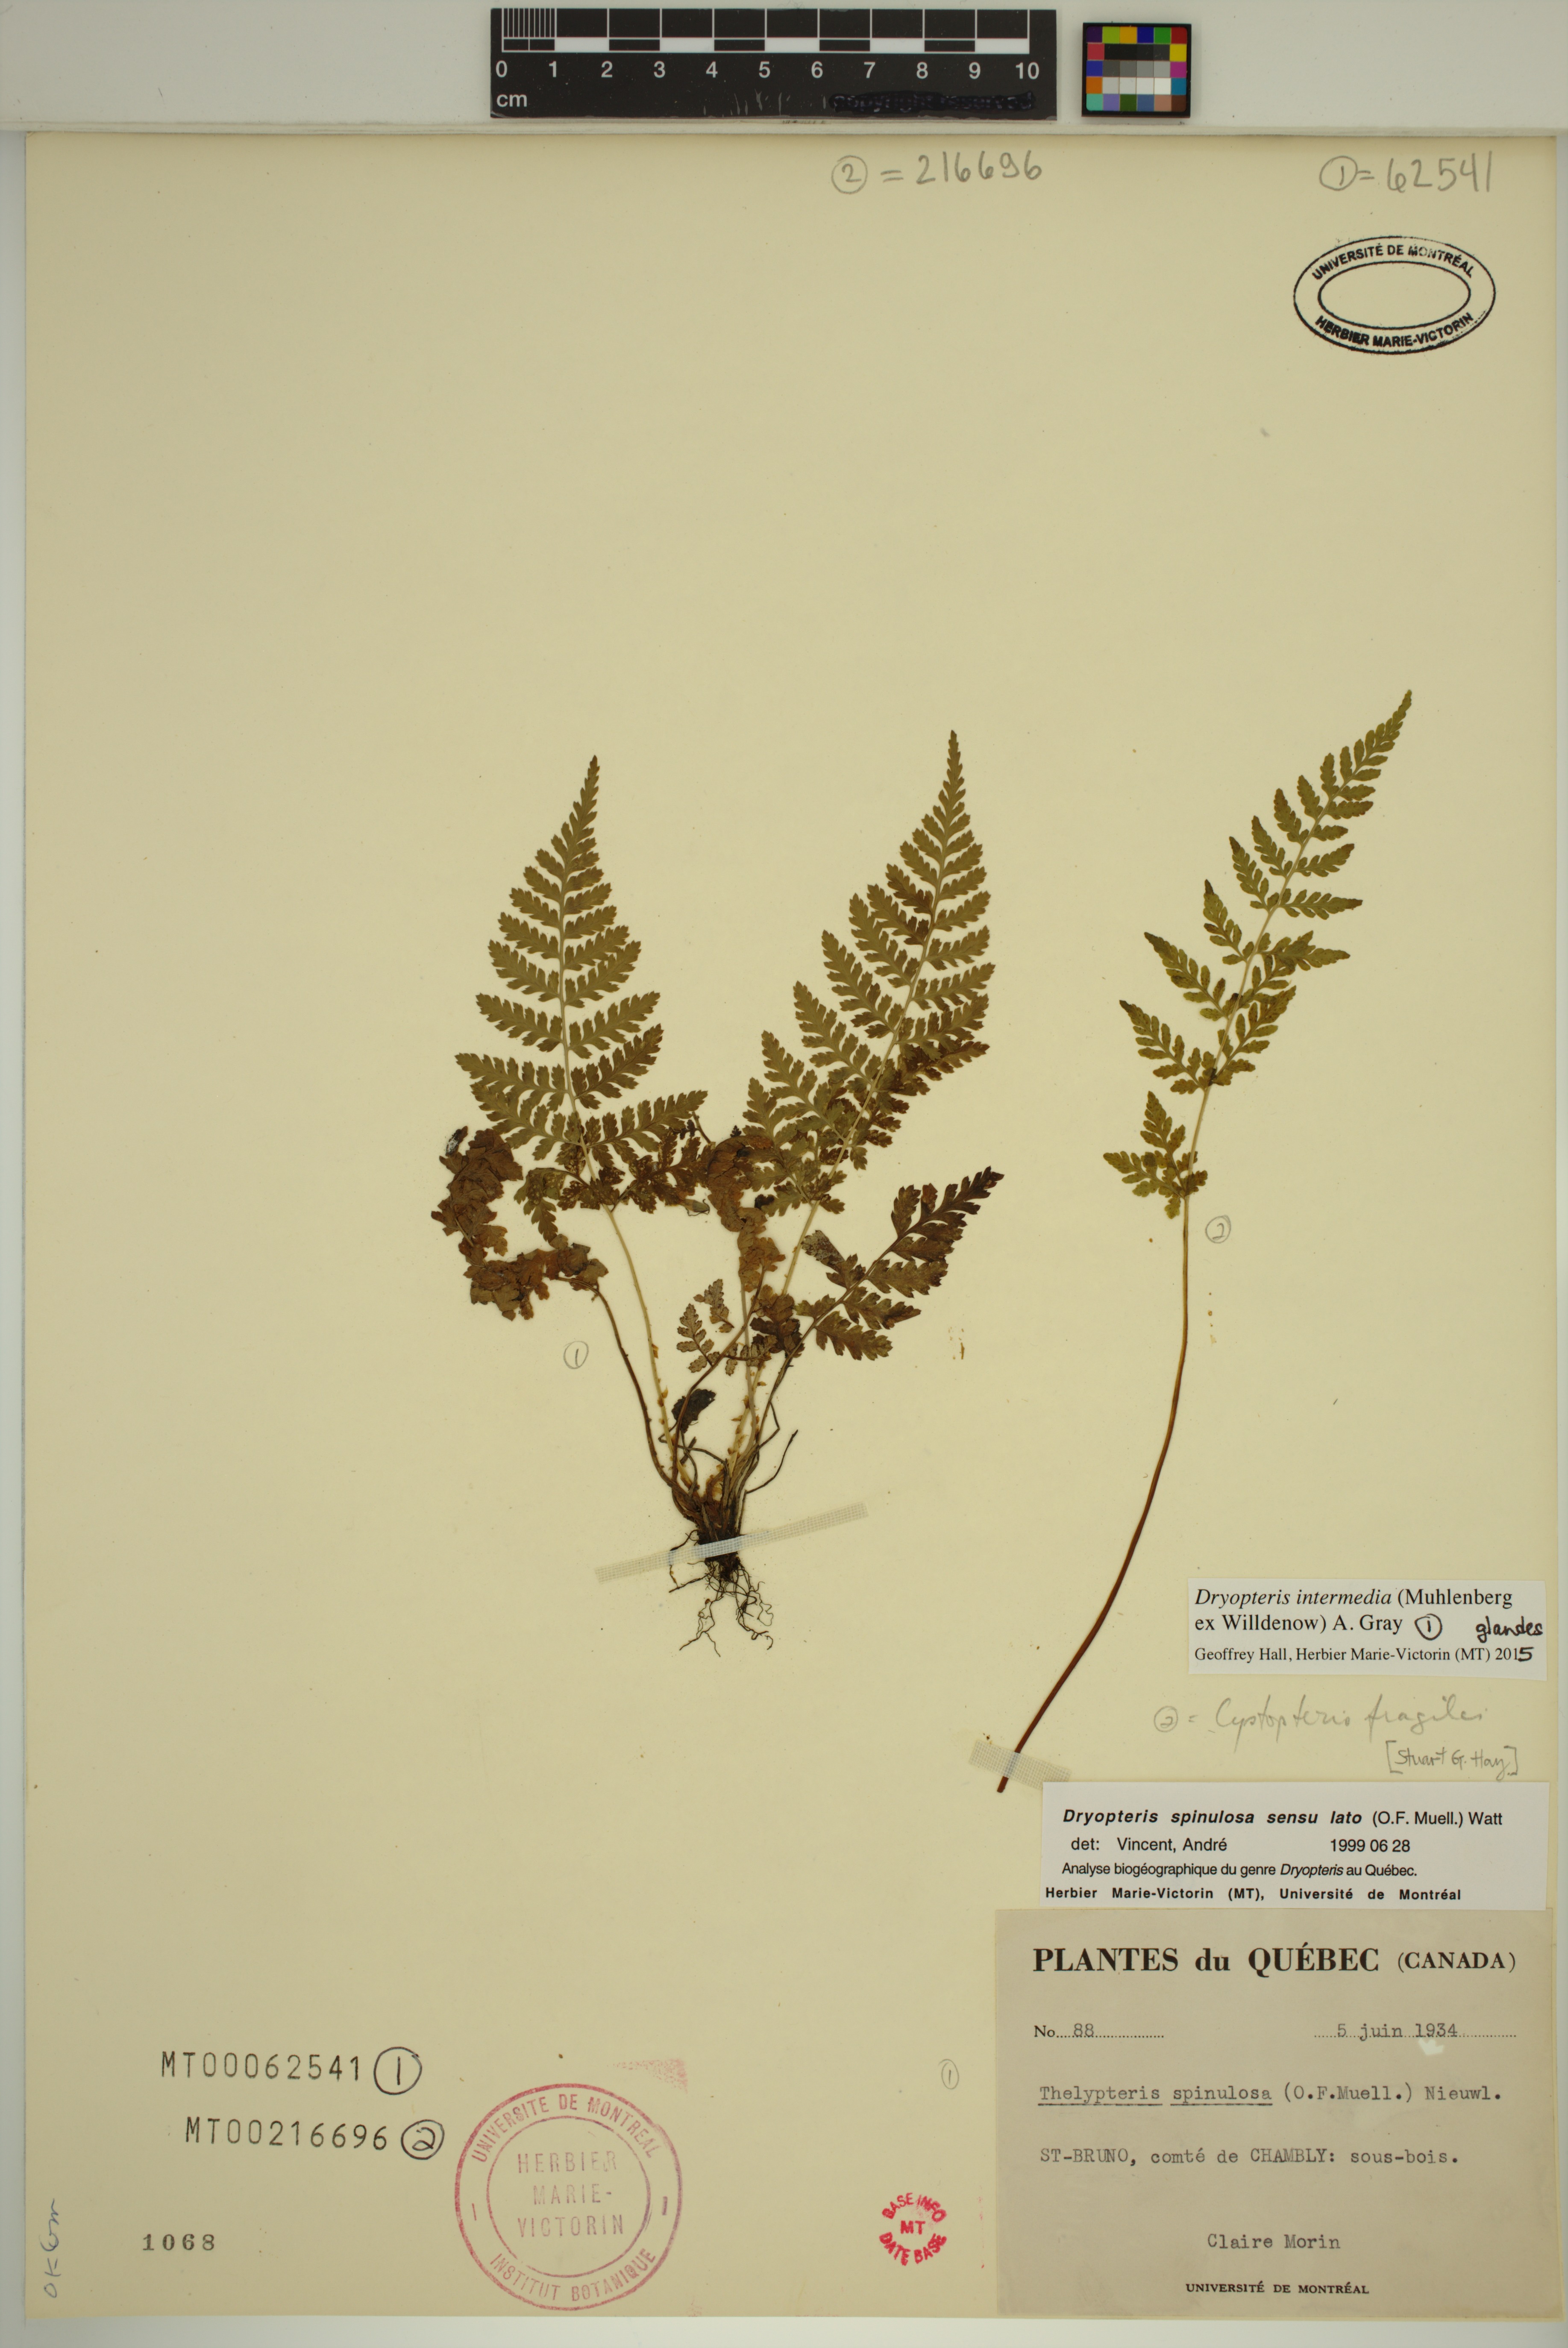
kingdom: Plantae
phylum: Tracheophyta
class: Polypodiopsida
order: Polypodiales
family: Cystopteridaceae
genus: Cystopteris
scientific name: Cystopteris fragilis
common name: Brittle bladder fern
